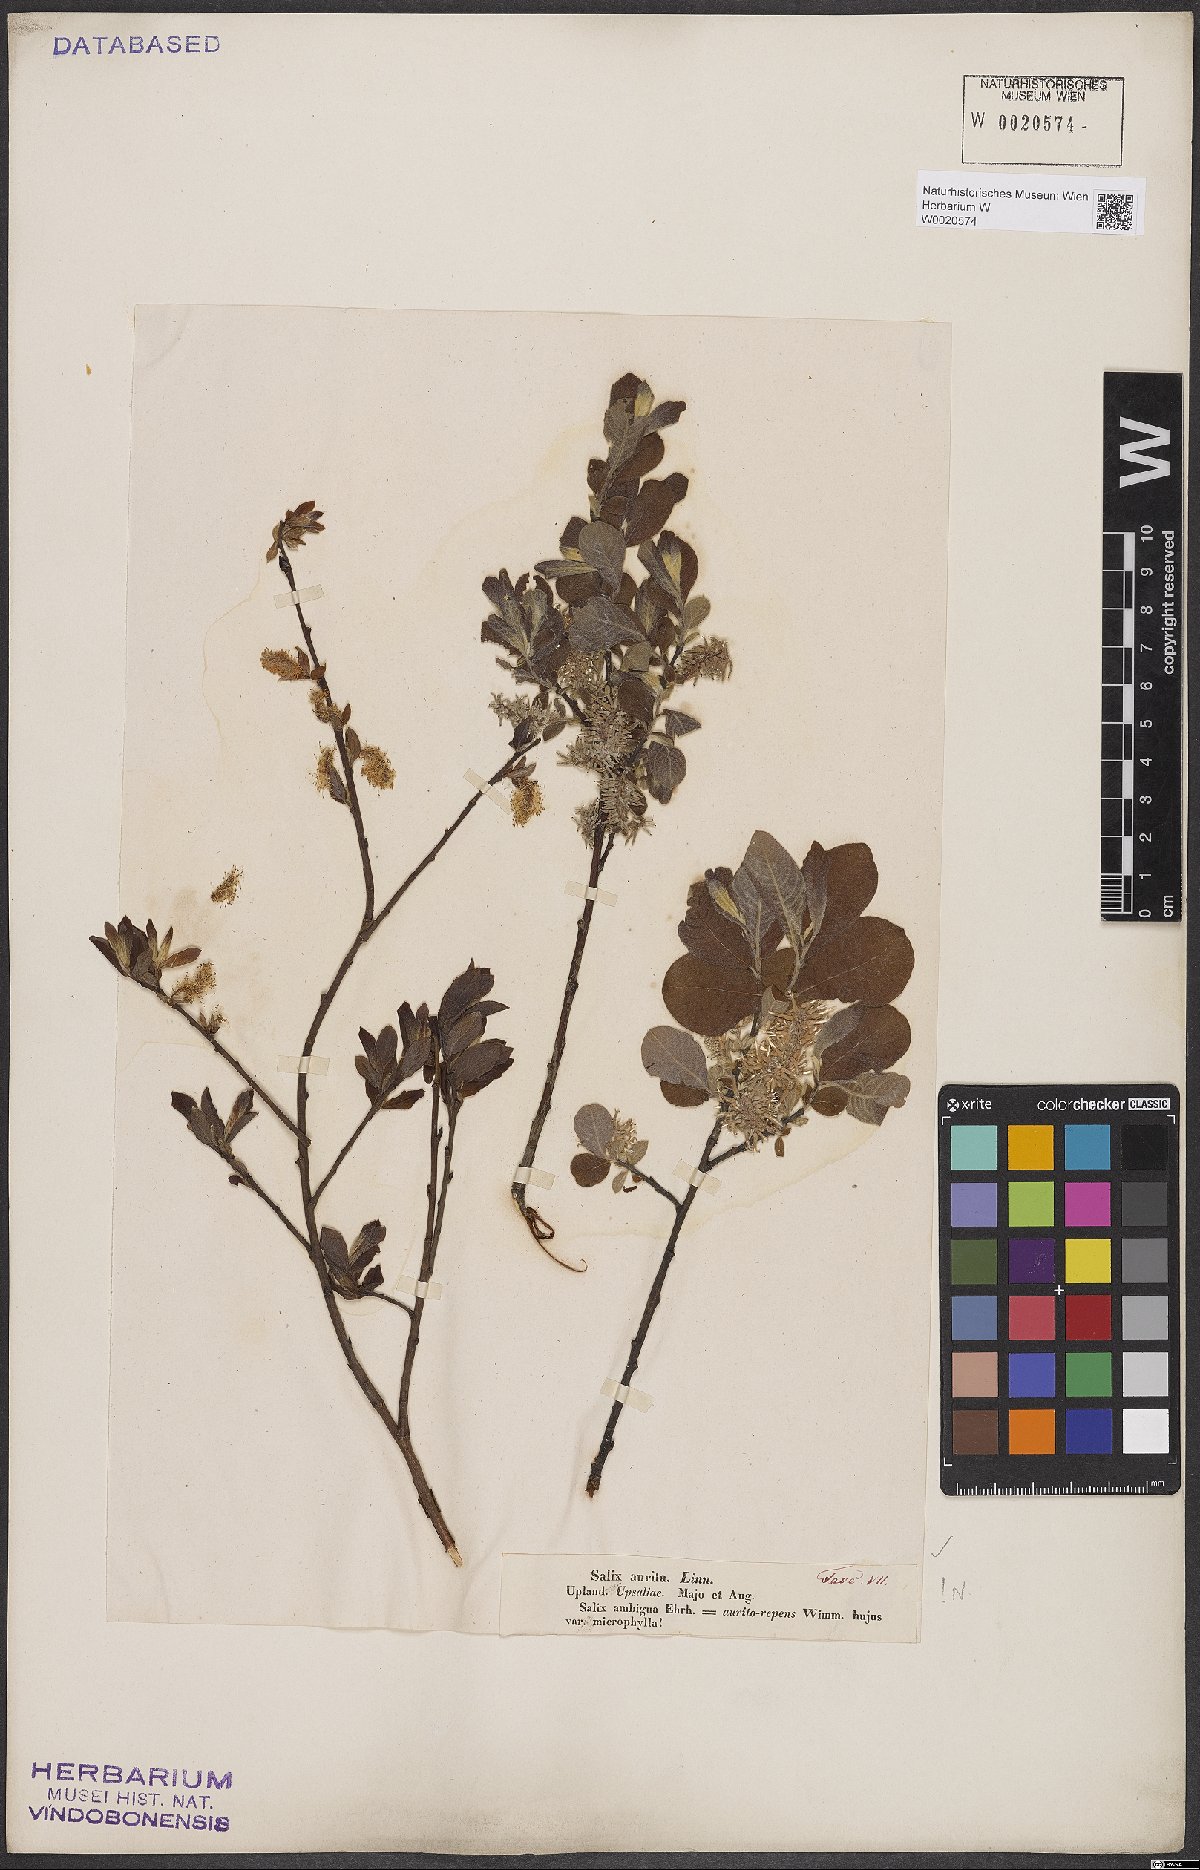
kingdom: Plantae
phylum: Tracheophyta
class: Magnoliopsida
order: Malpighiales
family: Salicaceae
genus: Salix
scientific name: Salix aurita
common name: Eared willow
